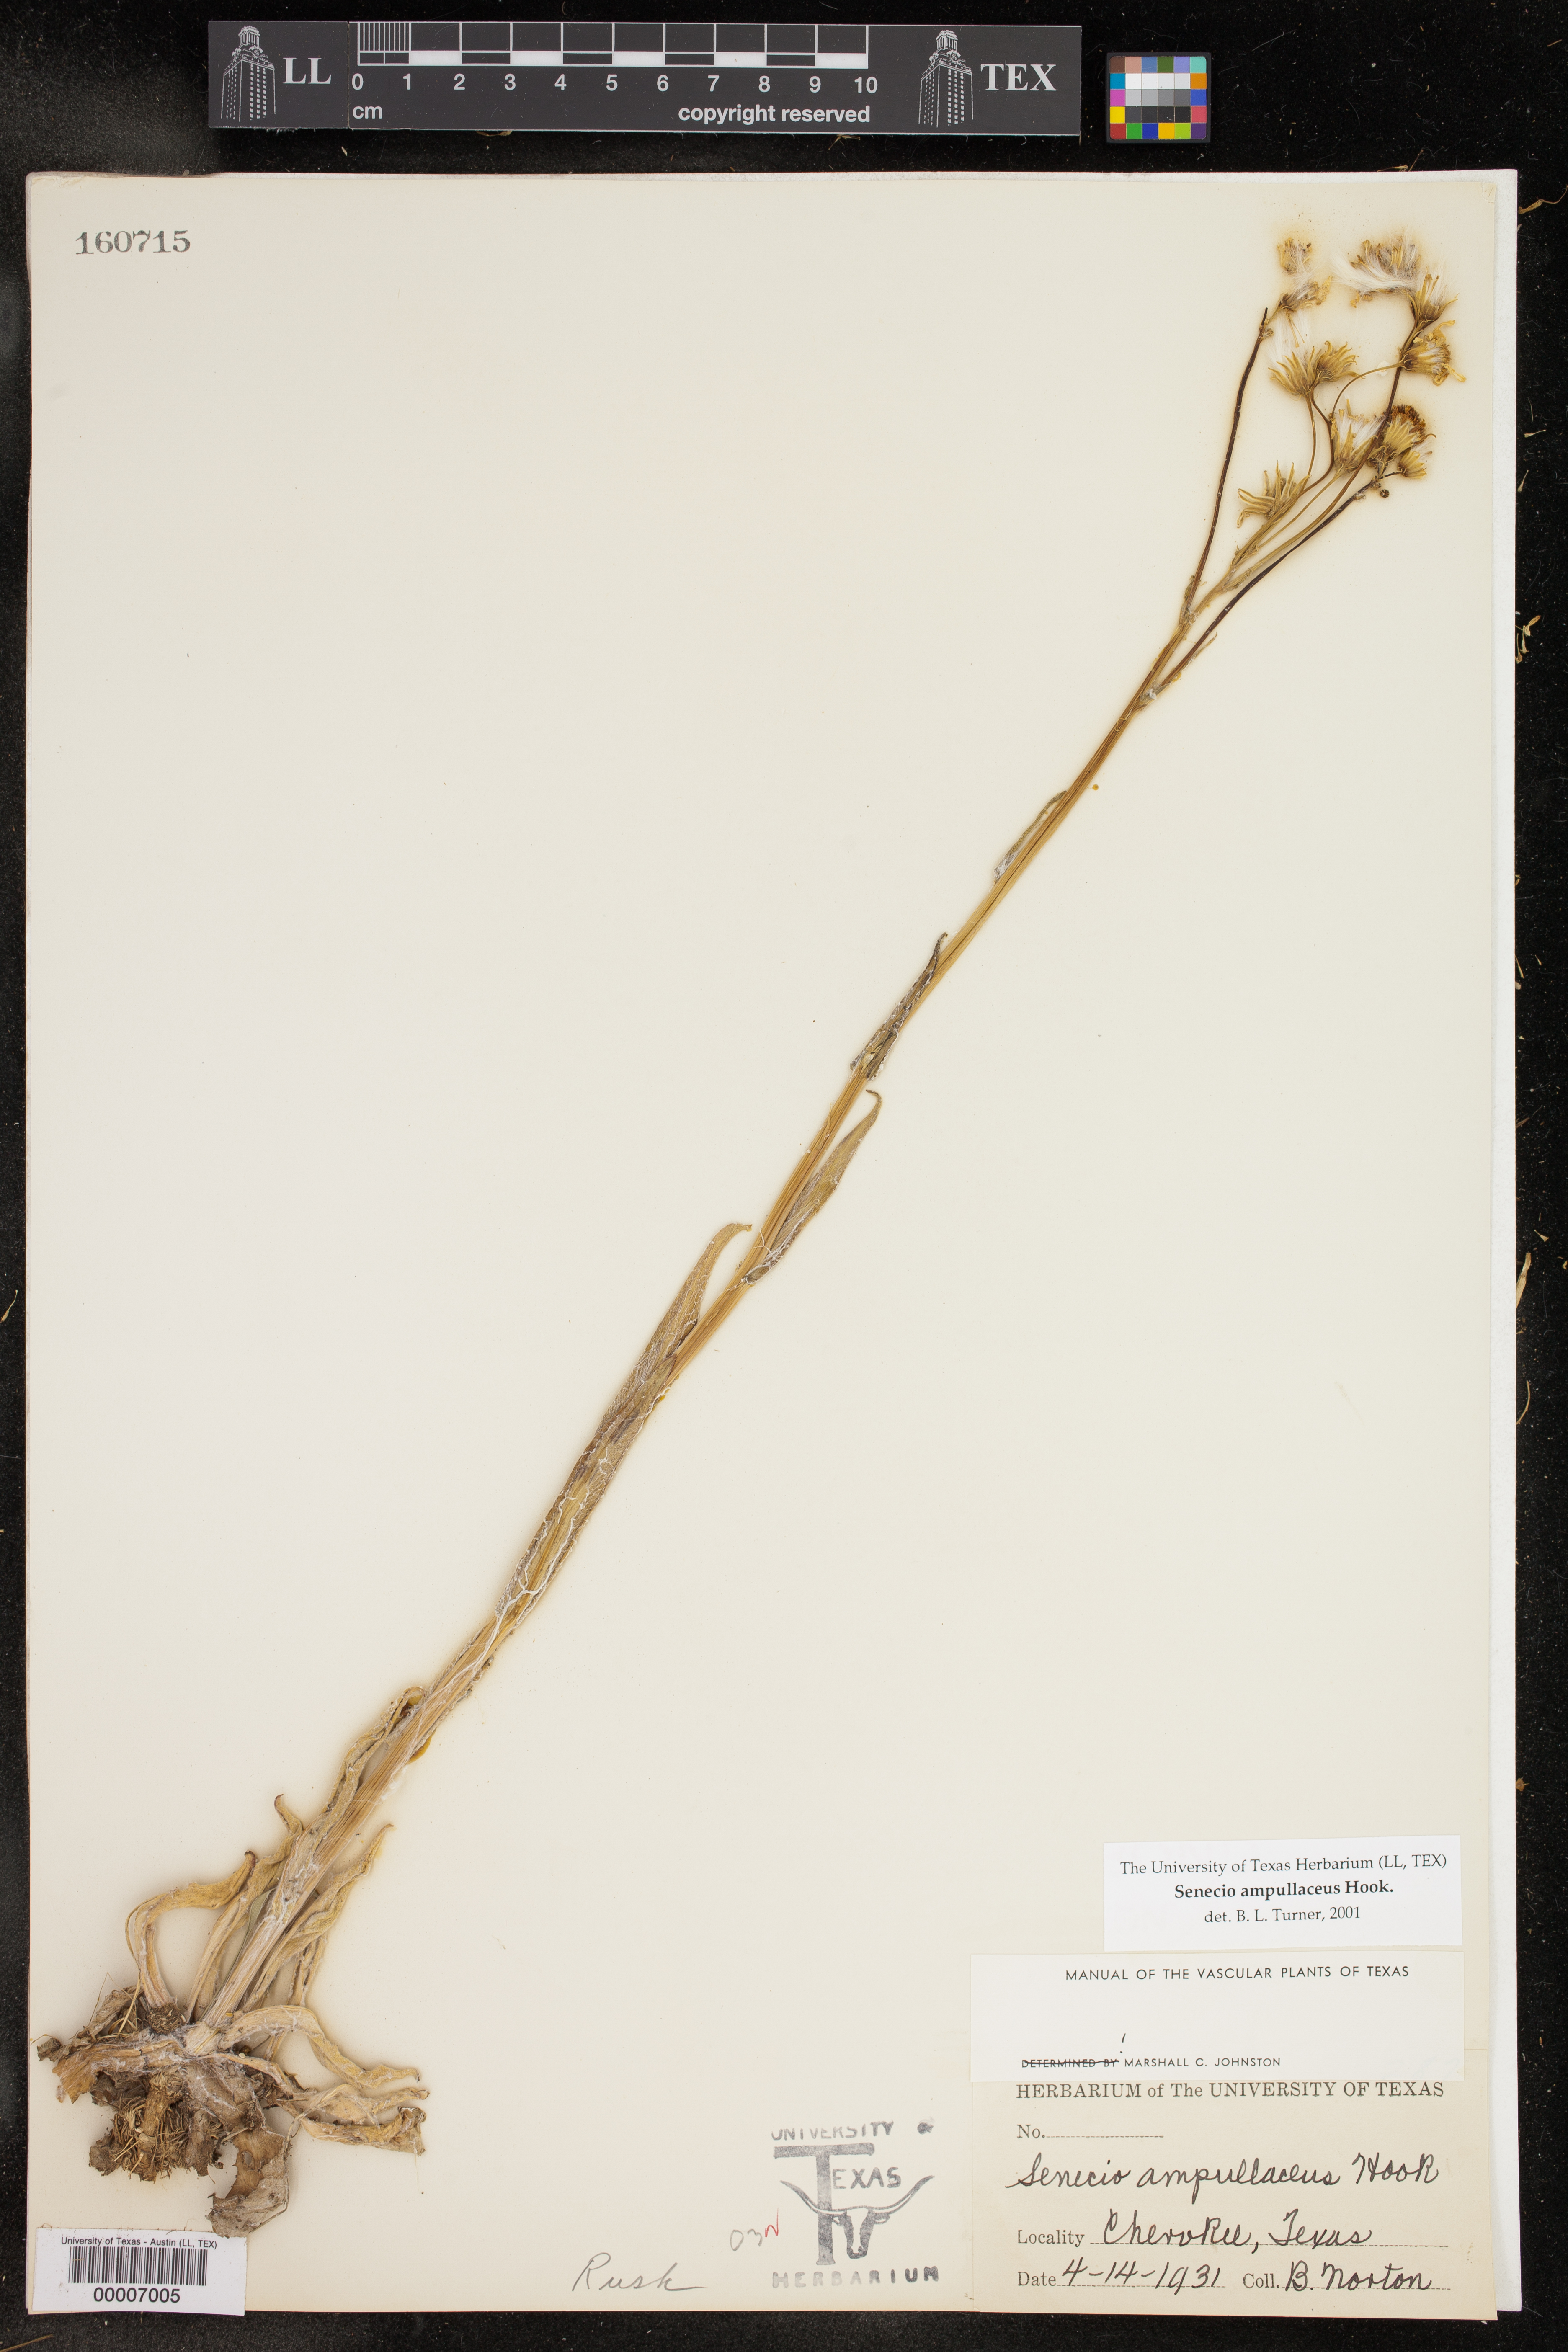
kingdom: Plantae
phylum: Tracheophyta
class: Magnoliopsida
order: Asterales
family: Asteraceae
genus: Senecio
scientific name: Senecio ampullaceus
